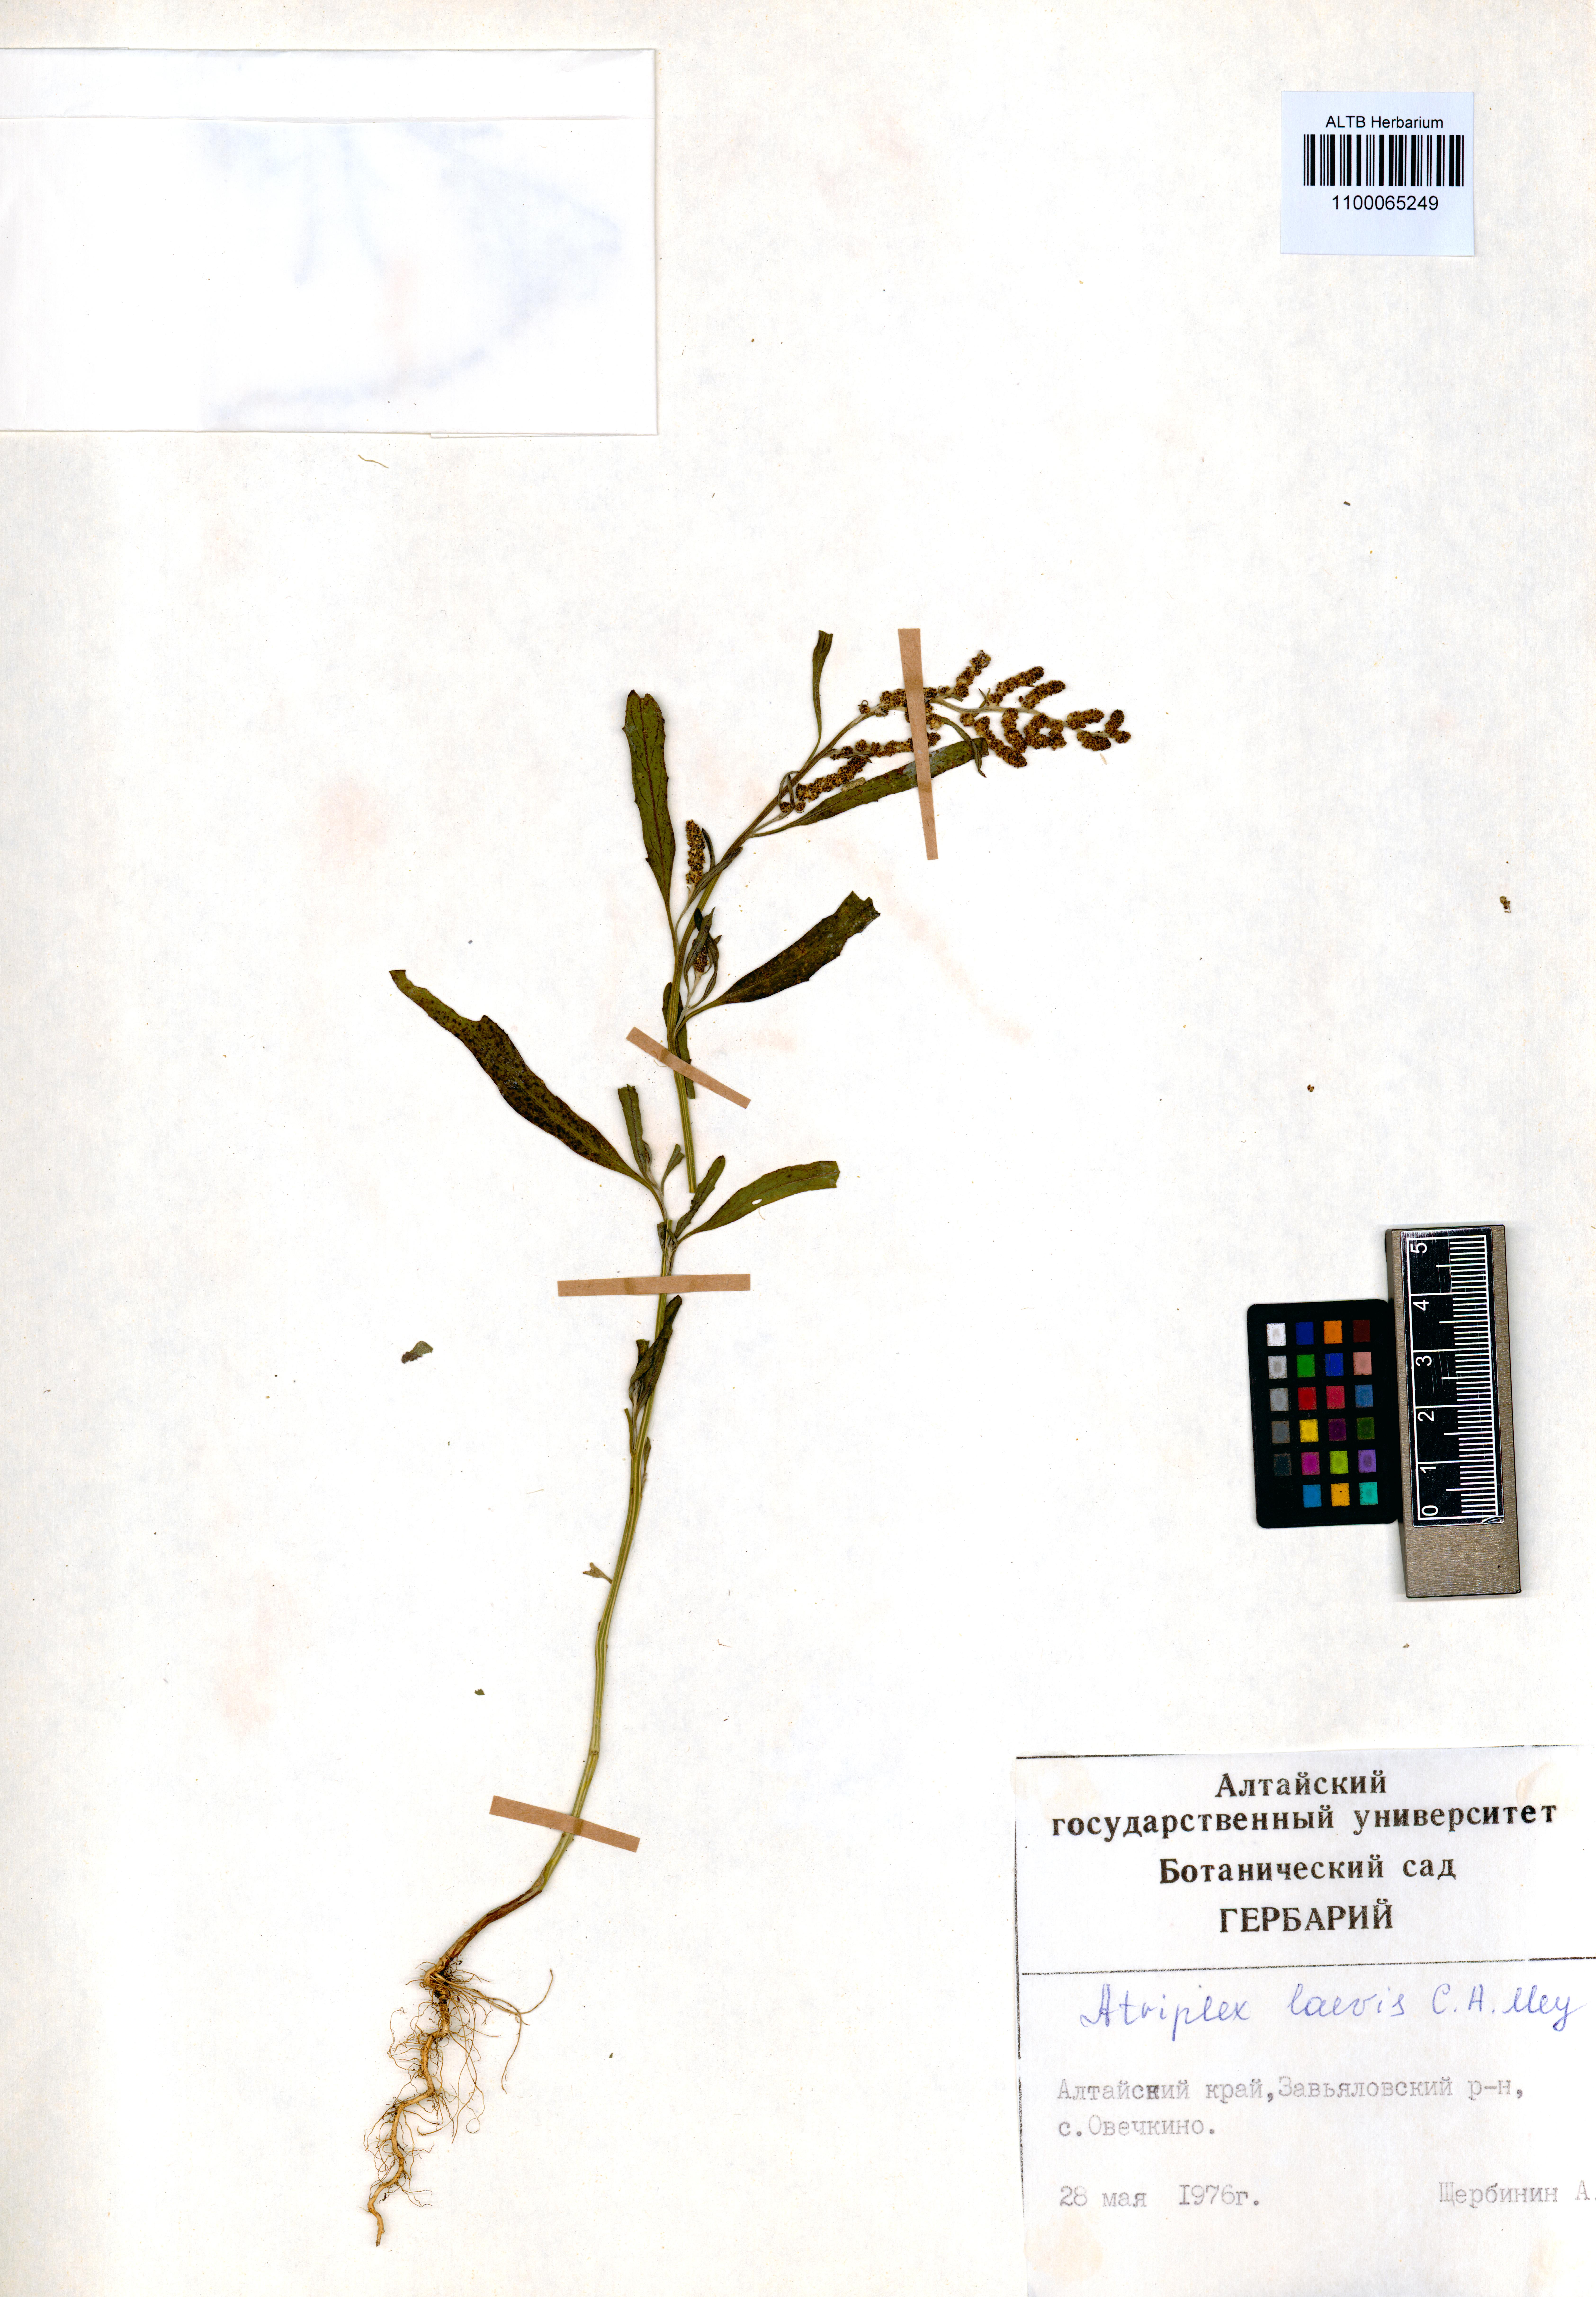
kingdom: Plantae
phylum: Tracheophyta
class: Magnoliopsida
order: Caryophyllales
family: Amaranthaceae
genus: Atriplex
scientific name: Atriplex laevis
